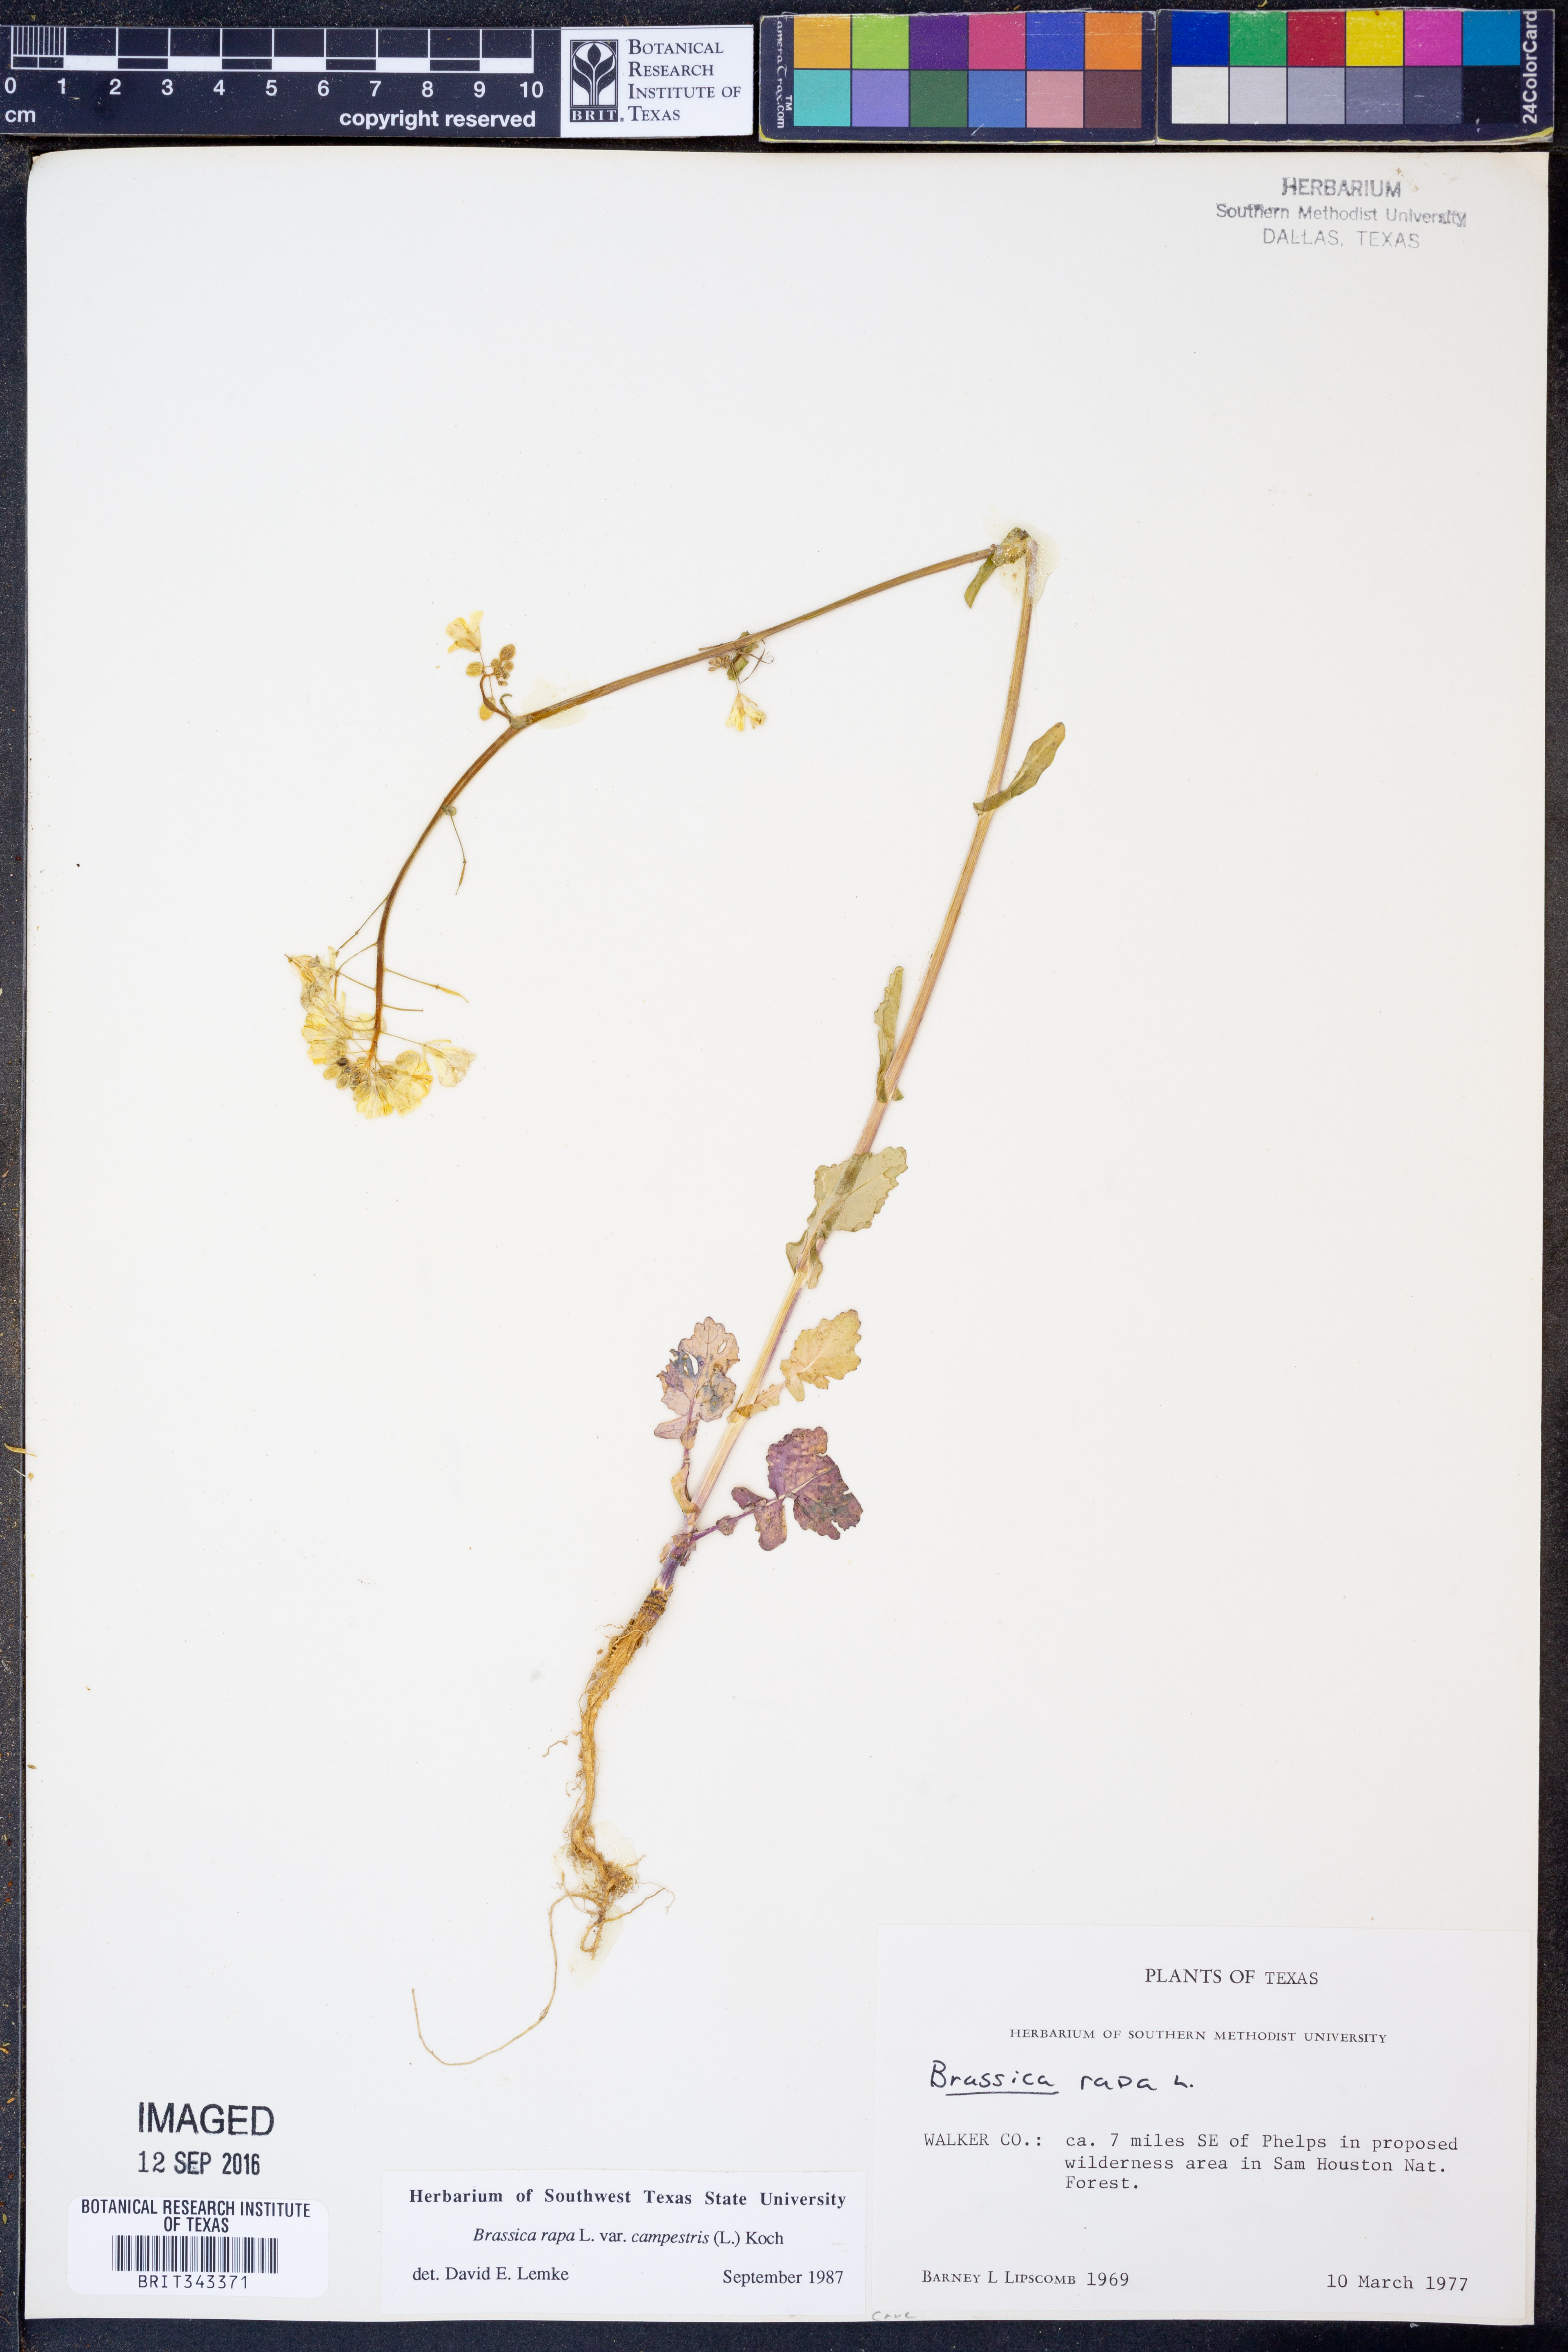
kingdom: Plantae
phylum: Tracheophyta
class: Magnoliopsida
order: Brassicales
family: Brassicaceae
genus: Brassica
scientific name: Brassica rapa
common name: Field mustard
